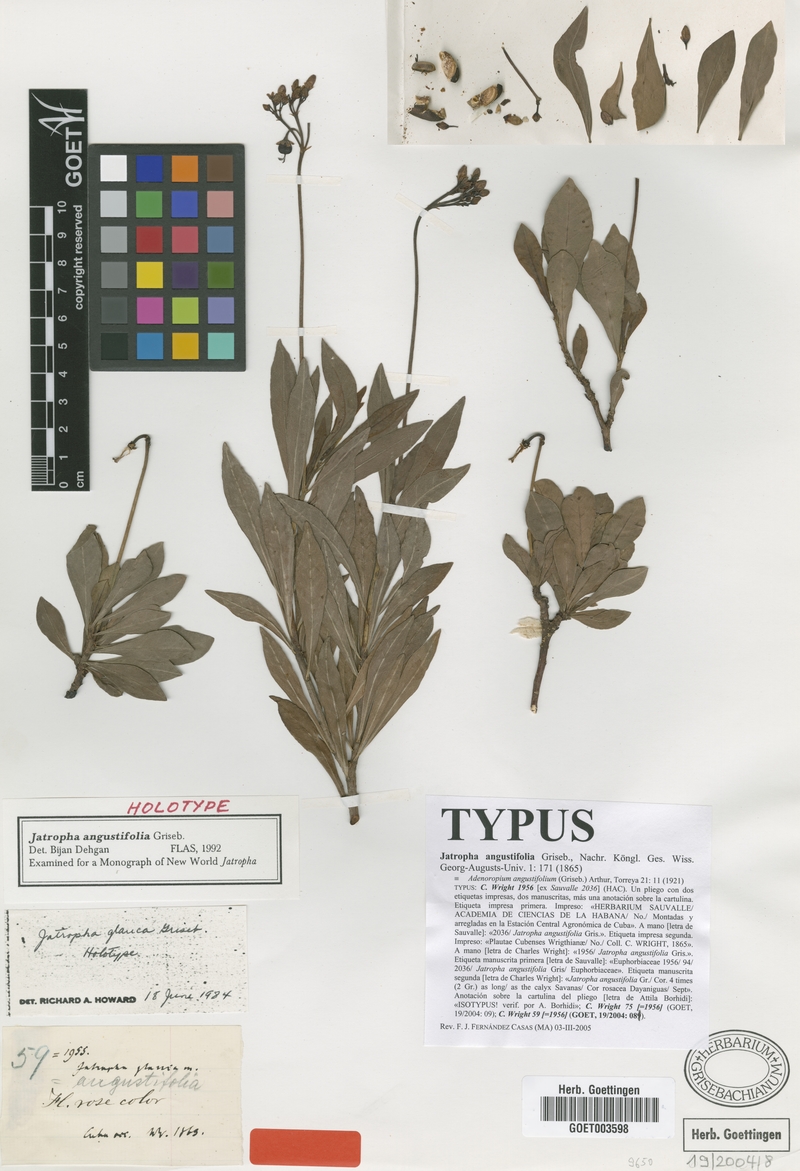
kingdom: Plantae
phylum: Tracheophyta
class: Magnoliopsida
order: Malpighiales
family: Euphorbiaceae
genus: Jatropha
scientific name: Jatropha angustifolia
